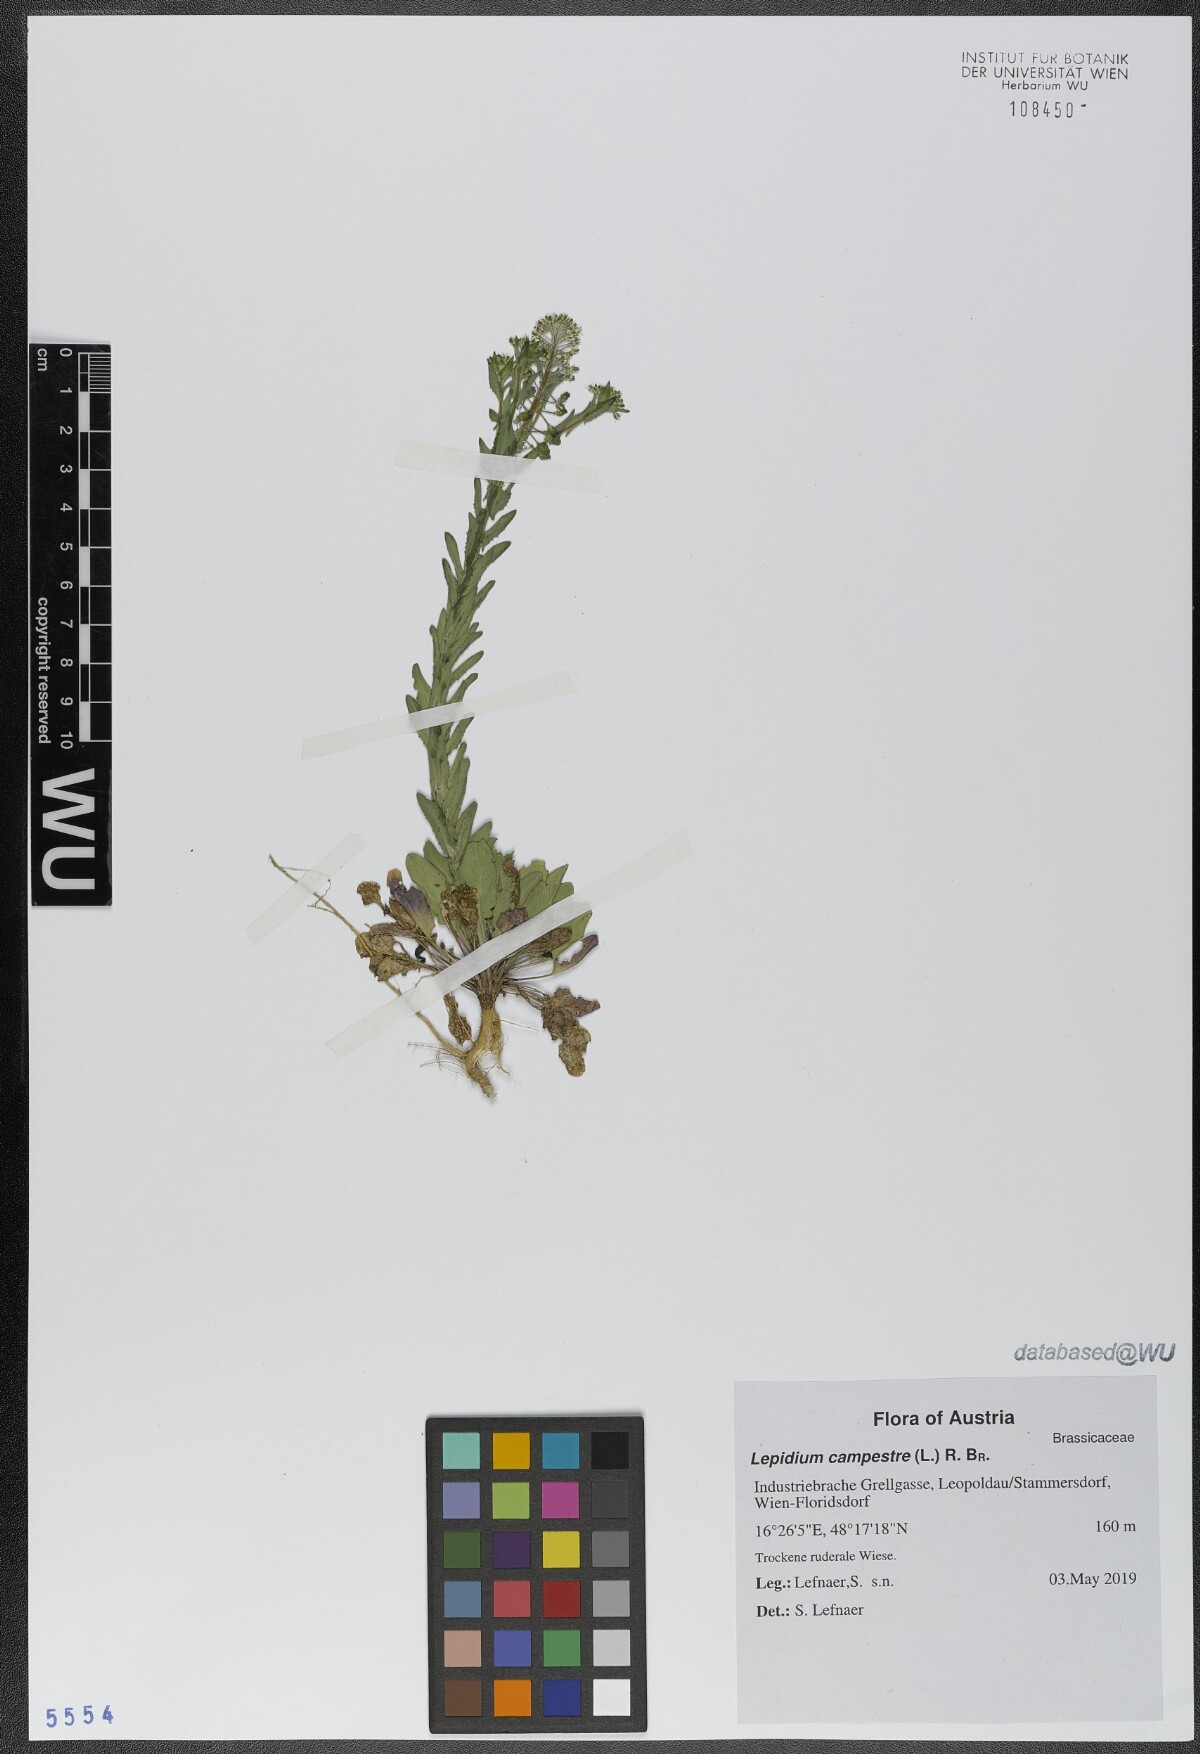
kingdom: Plantae
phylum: Tracheophyta
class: Magnoliopsida
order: Brassicales
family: Brassicaceae
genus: Lepidium
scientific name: Lepidium campestre
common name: Field pepperwort
